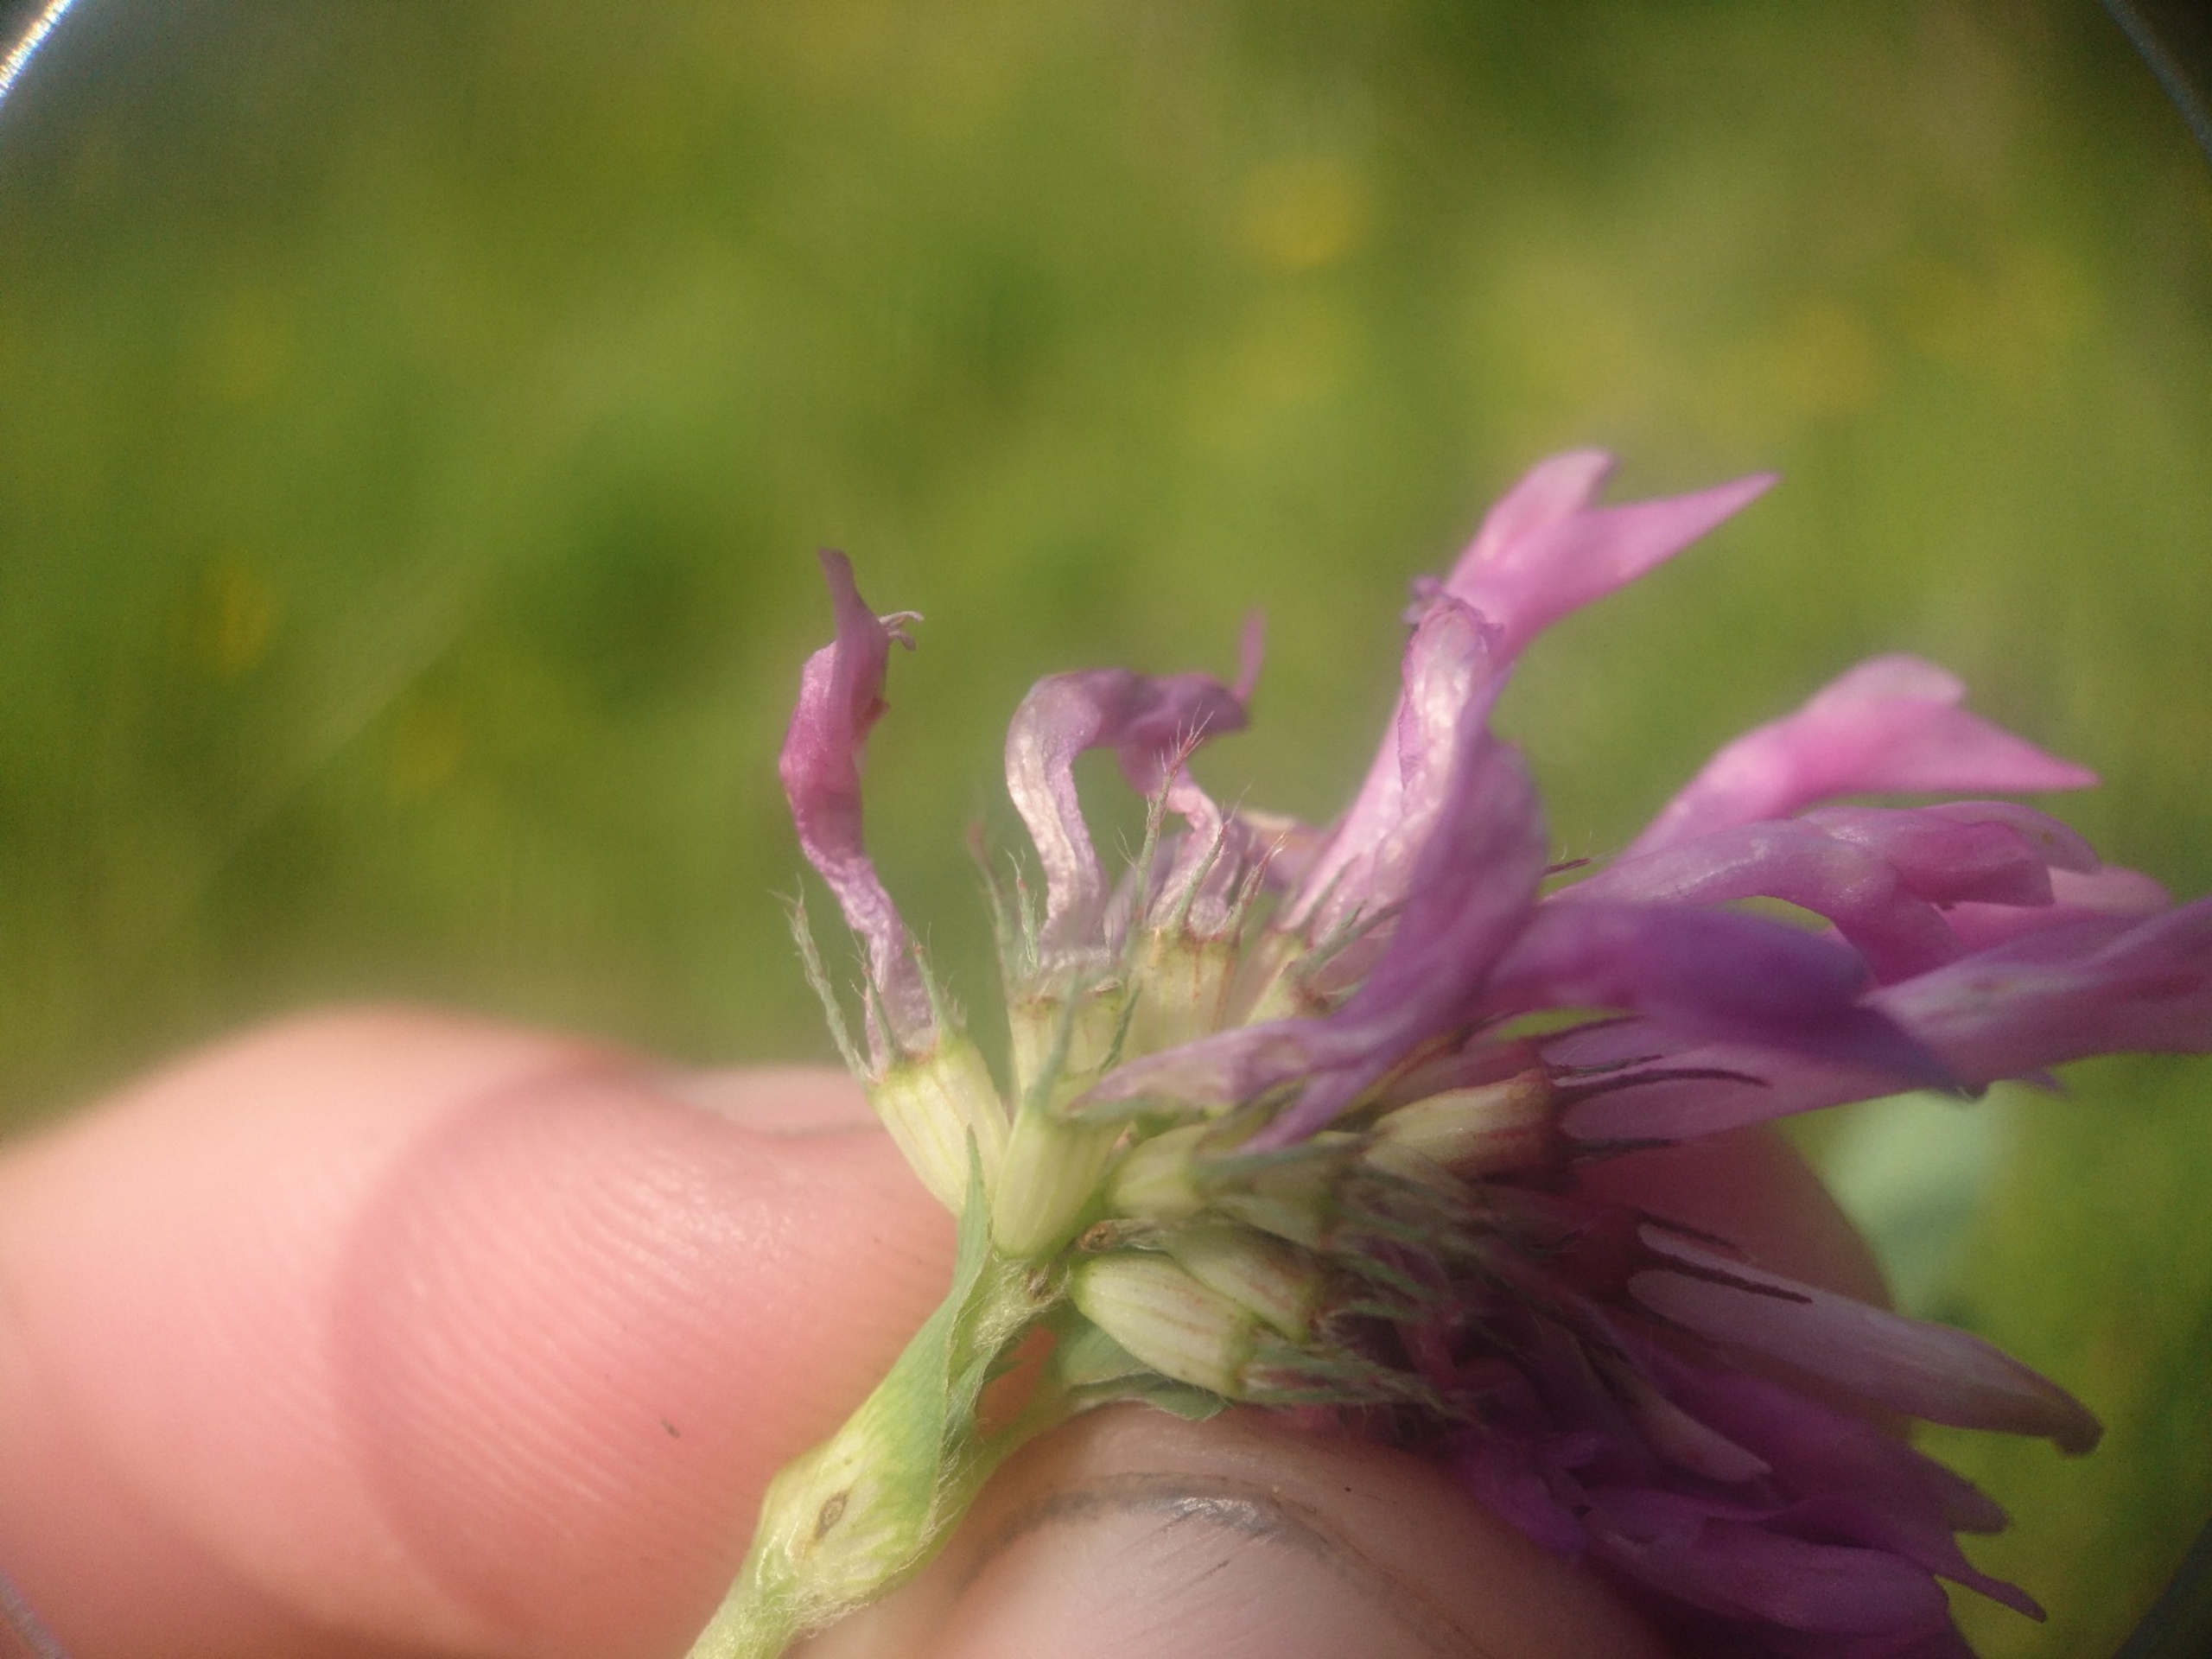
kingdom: Plantae
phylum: Tracheophyta
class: Magnoliopsida
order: Fabales
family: Fabaceae
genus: Trifolium
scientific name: Trifolium medium
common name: Bugtet kløver
